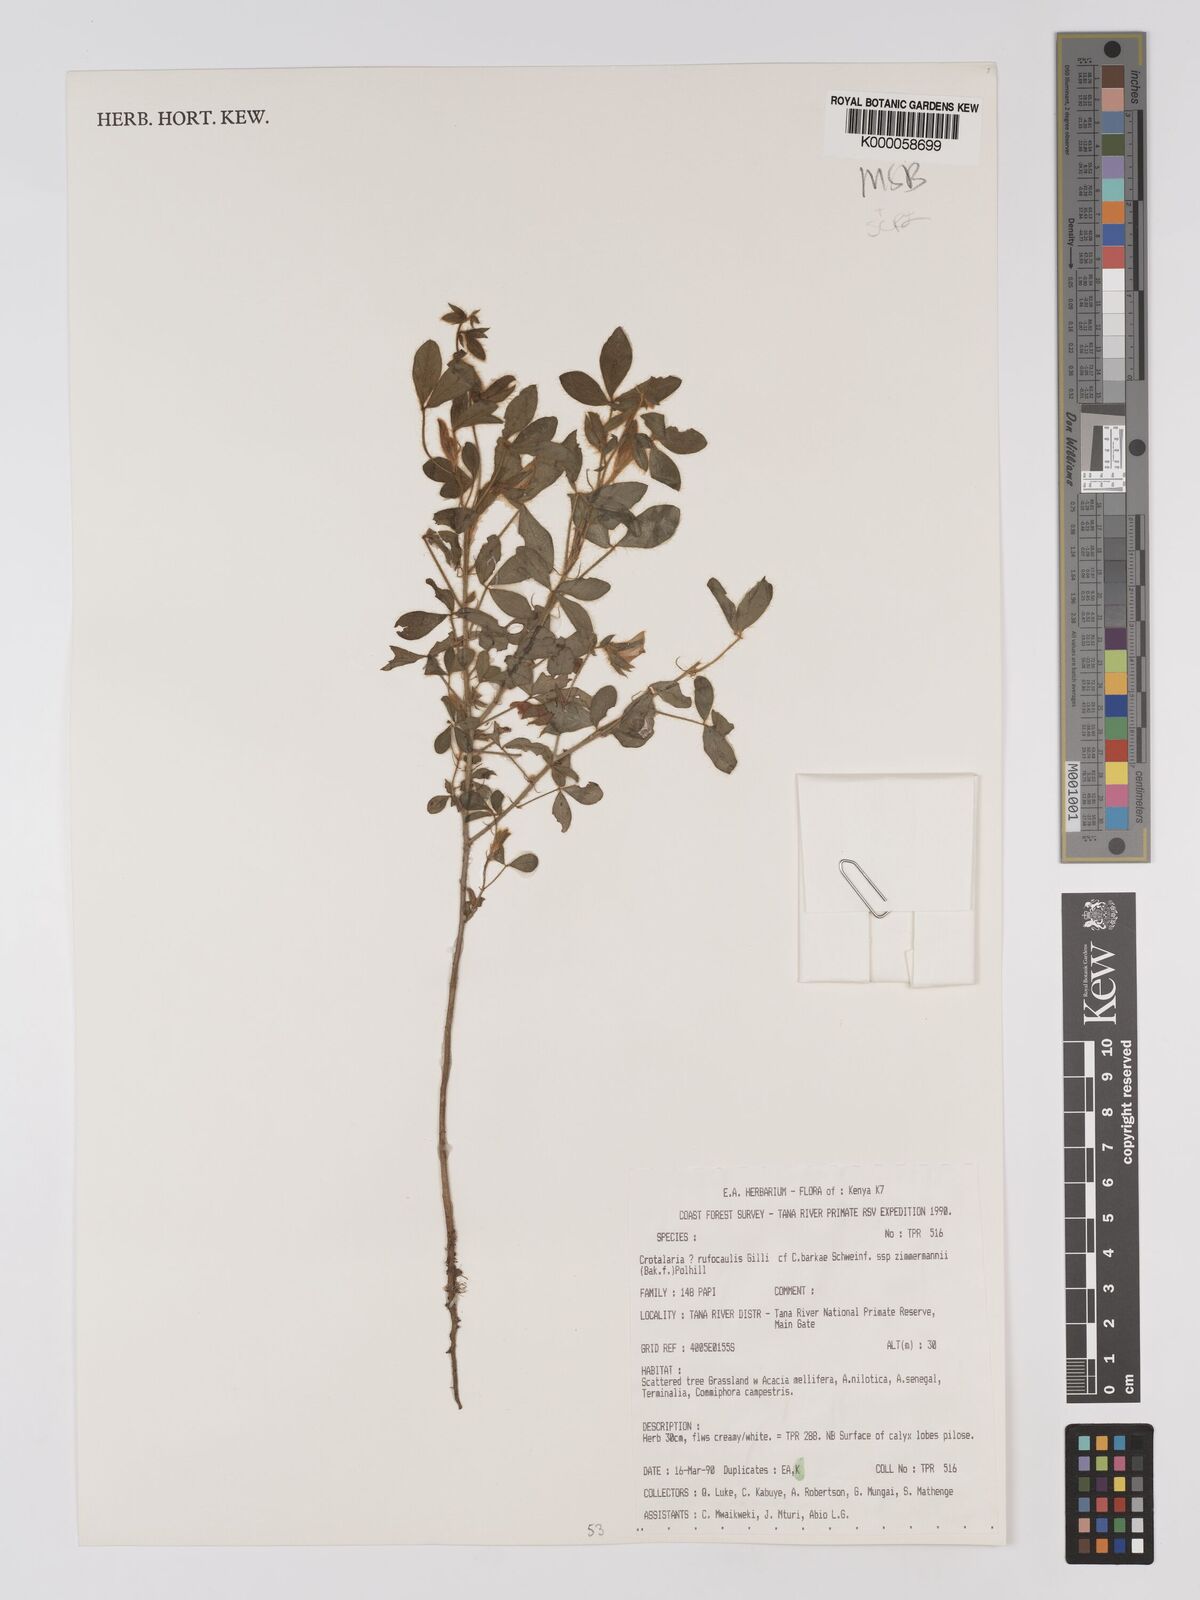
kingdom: Plantae
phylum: Tracheophyta
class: Magnoliopsida
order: Fabales
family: Fabaceae
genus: Crotalaria
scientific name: Crotalaria rufocaulis
